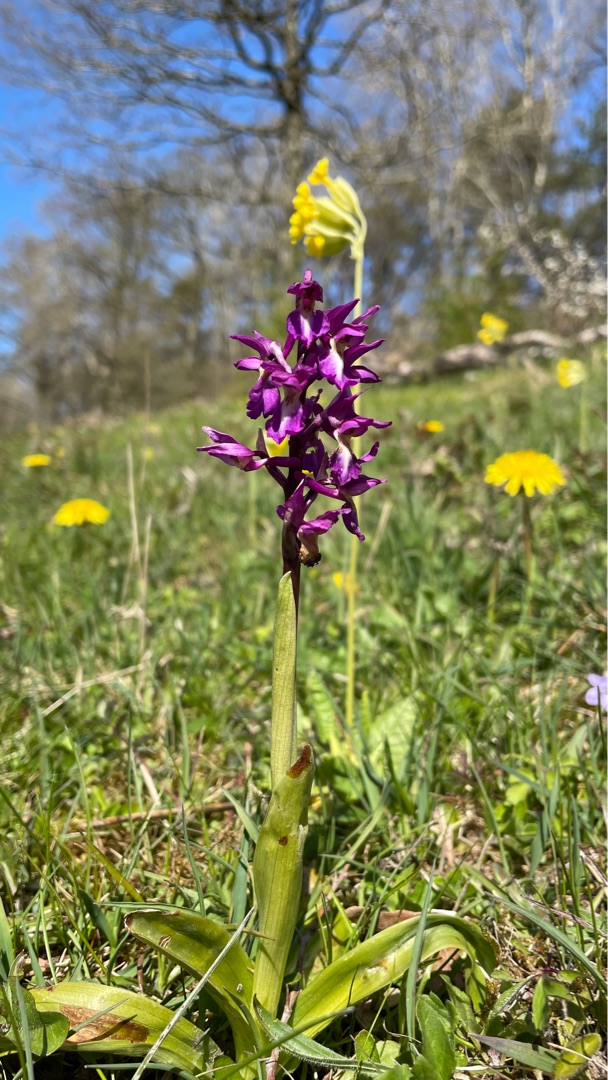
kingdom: Plantae
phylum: Tracheophyta
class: Liliopsida
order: Asparagales
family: Orchidaceae
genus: Orchis
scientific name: Orchis mascula
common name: Tyndakset gøgeurt
